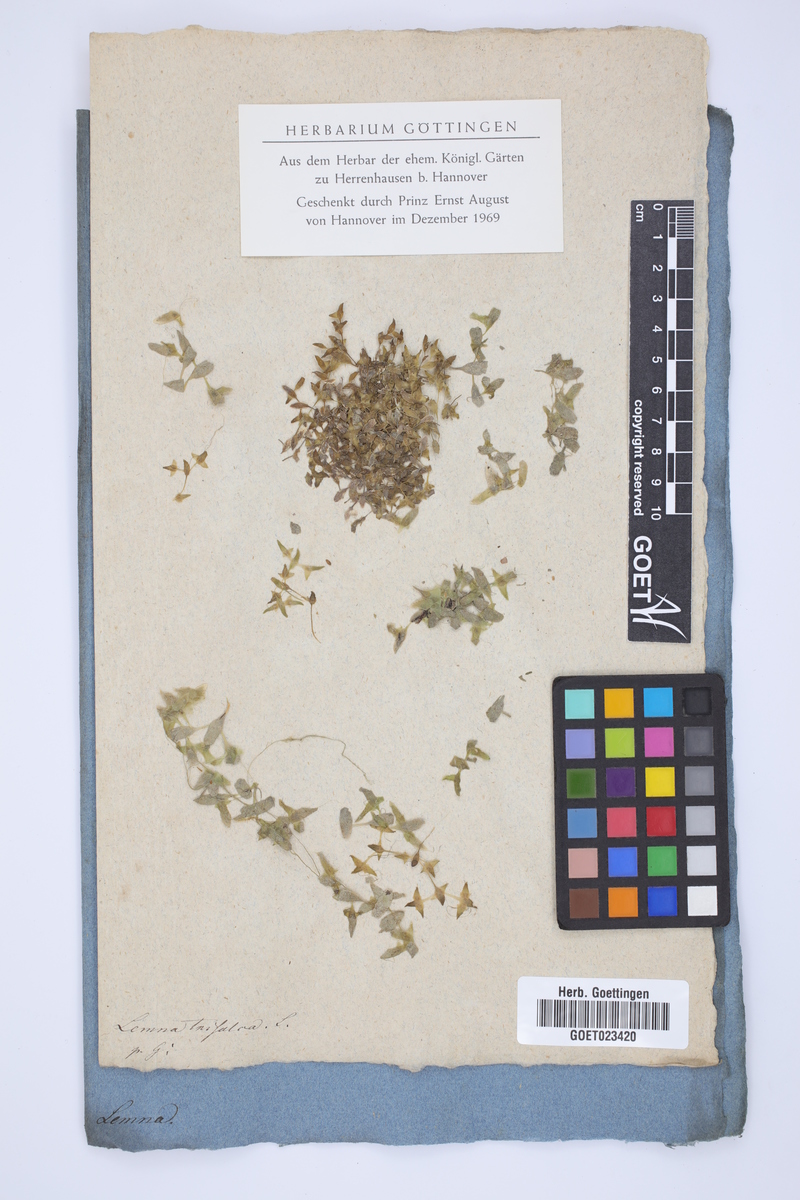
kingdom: Plantae
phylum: Tracheophyta
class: Liliopsida
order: Alismatales
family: Araceae
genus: Lemna
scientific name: Lemna trisulca
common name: Ivy-leaved duckweed
